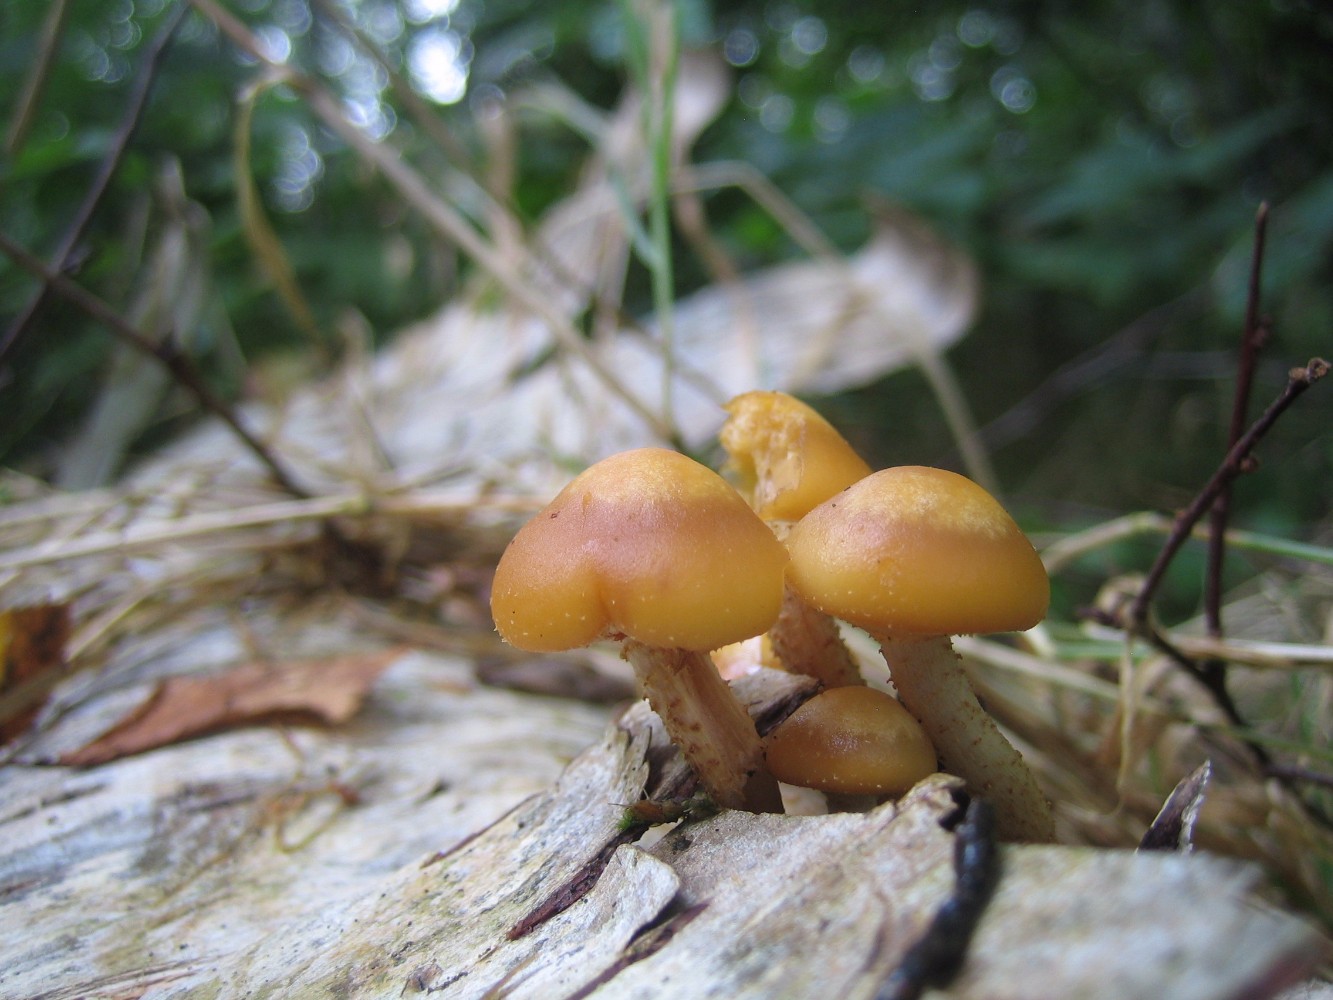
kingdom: Fungi
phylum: Basidiomycota
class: Agaricomycetes
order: Agaricales
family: Strophariaceae
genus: Kuehneromyces
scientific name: Kuehneromyces mutabilis
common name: foranderlig skælhat
